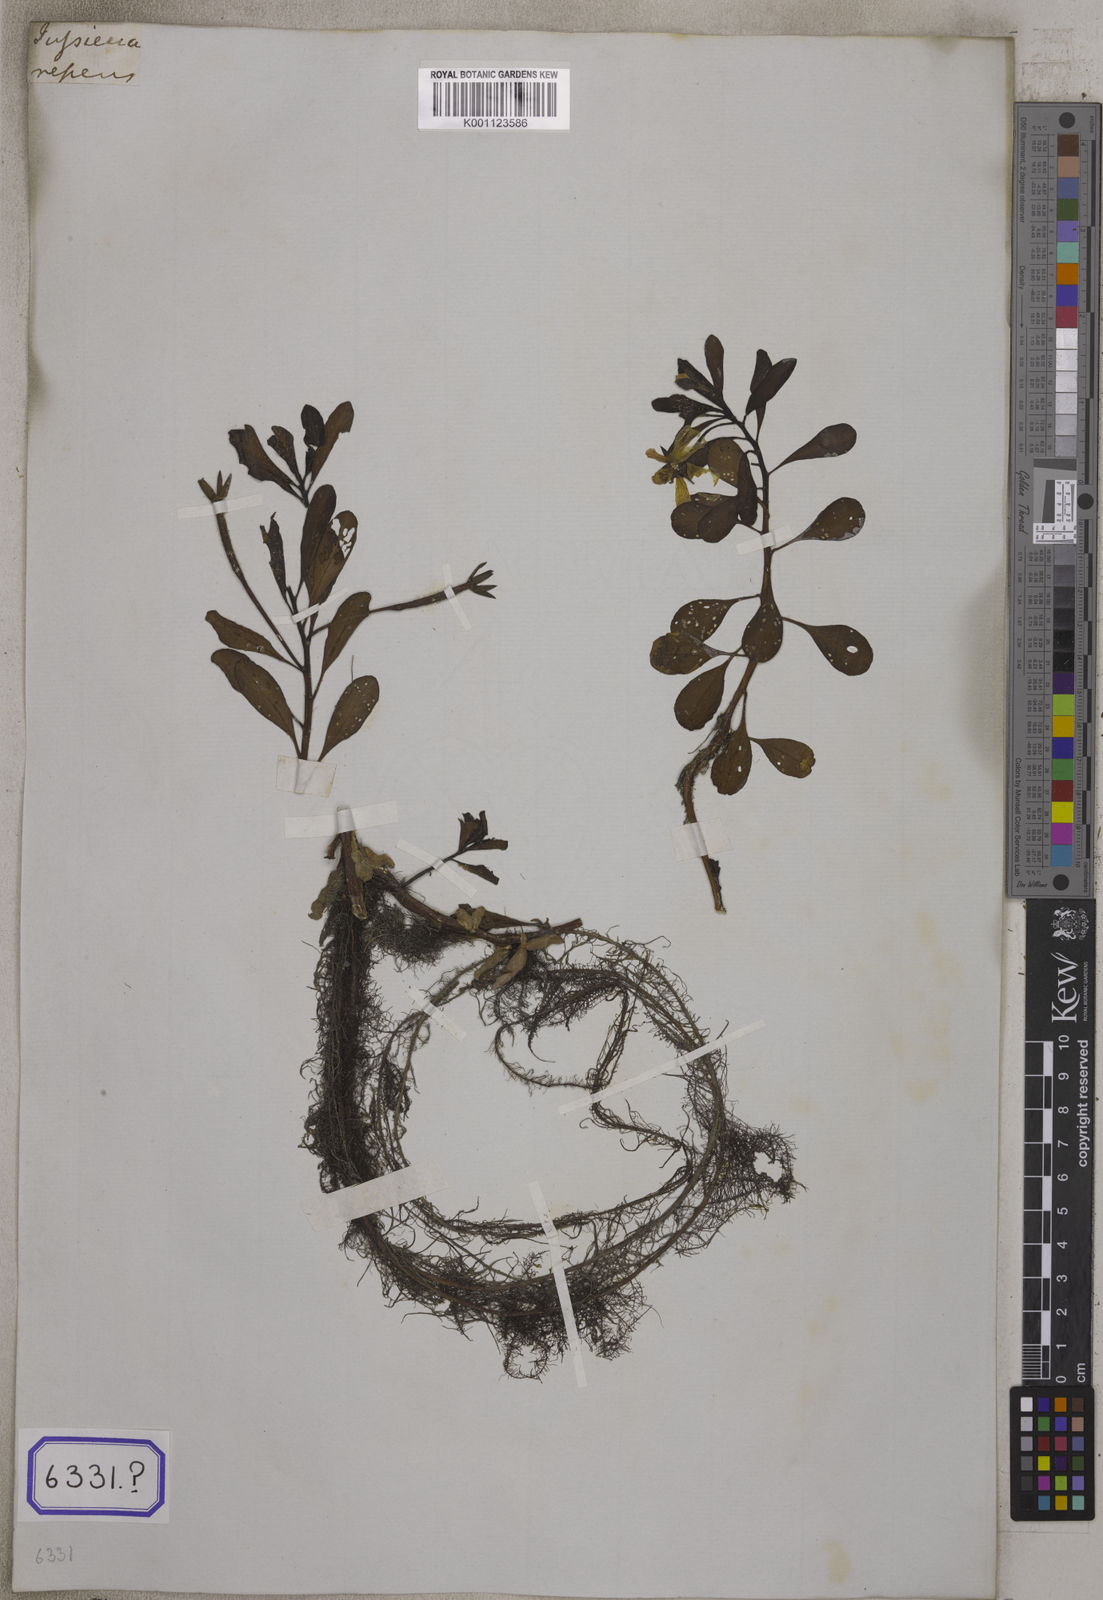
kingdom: Plantae
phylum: Tracheophyta
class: Magnoliopsida
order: Myrtales
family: Onagraceae
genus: Ludwigia
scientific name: Ludwigia adscendens
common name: Creeping water primrose
